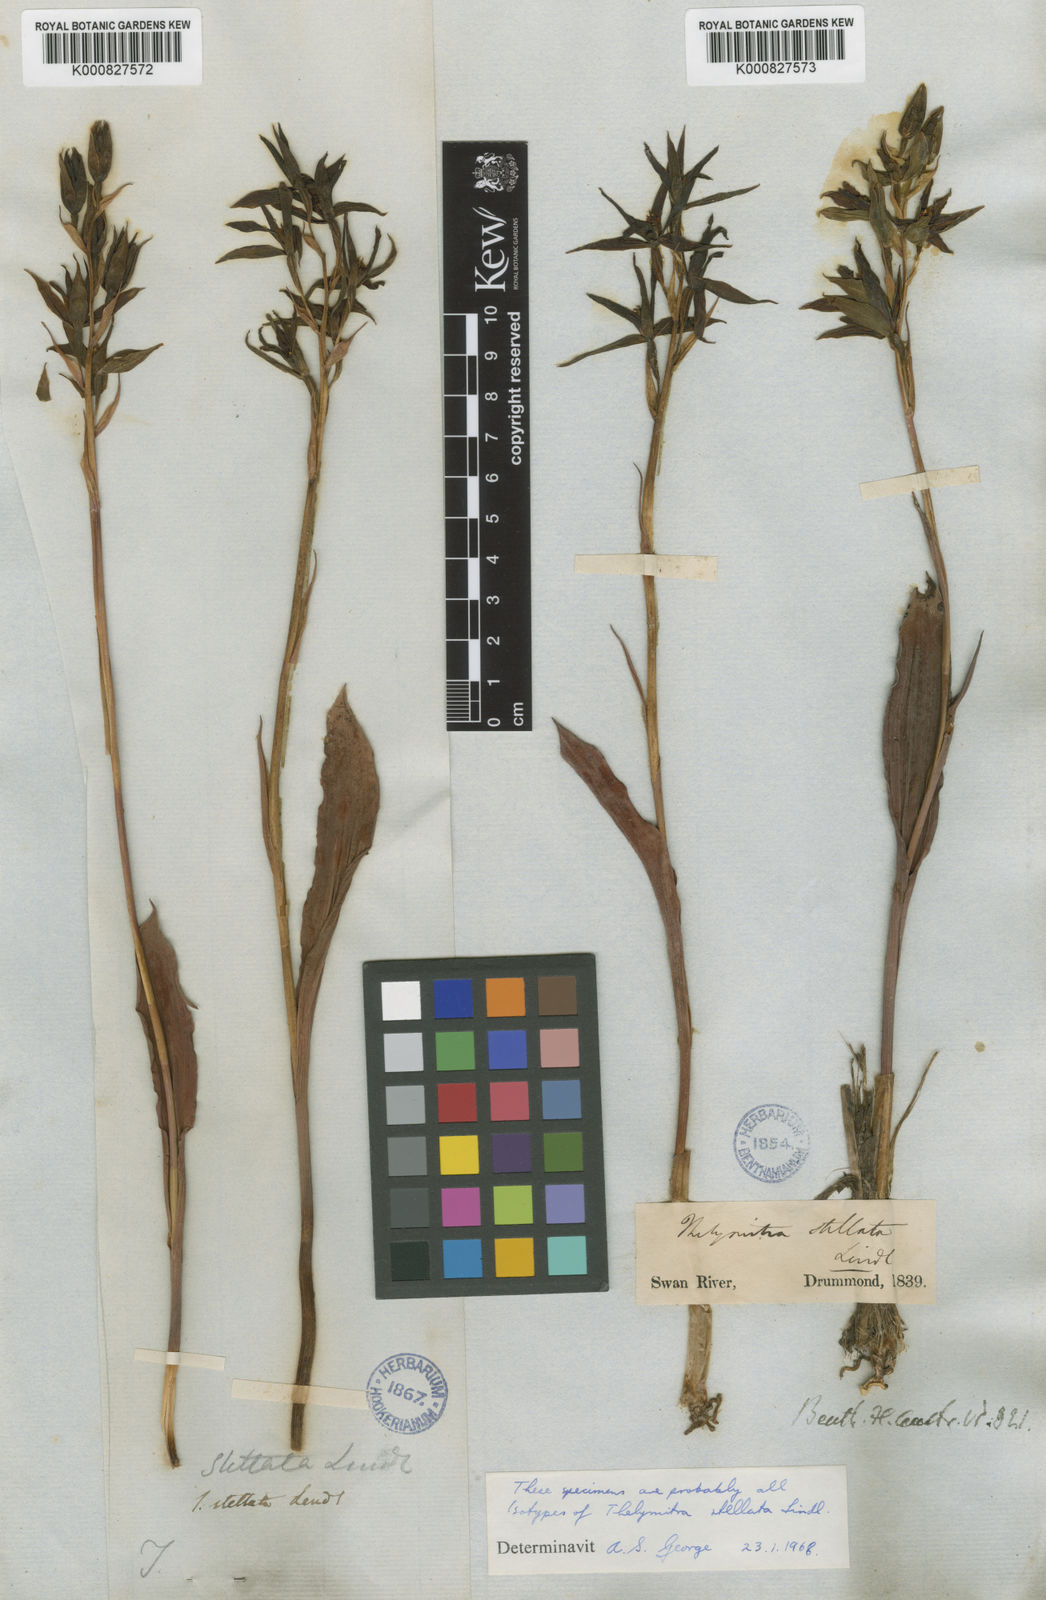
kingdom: Plantae
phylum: Tracheophyta
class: Liliopsida
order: Asparagales
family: Orchidaceae
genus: Thelymitra
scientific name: Thelymitra stellata
